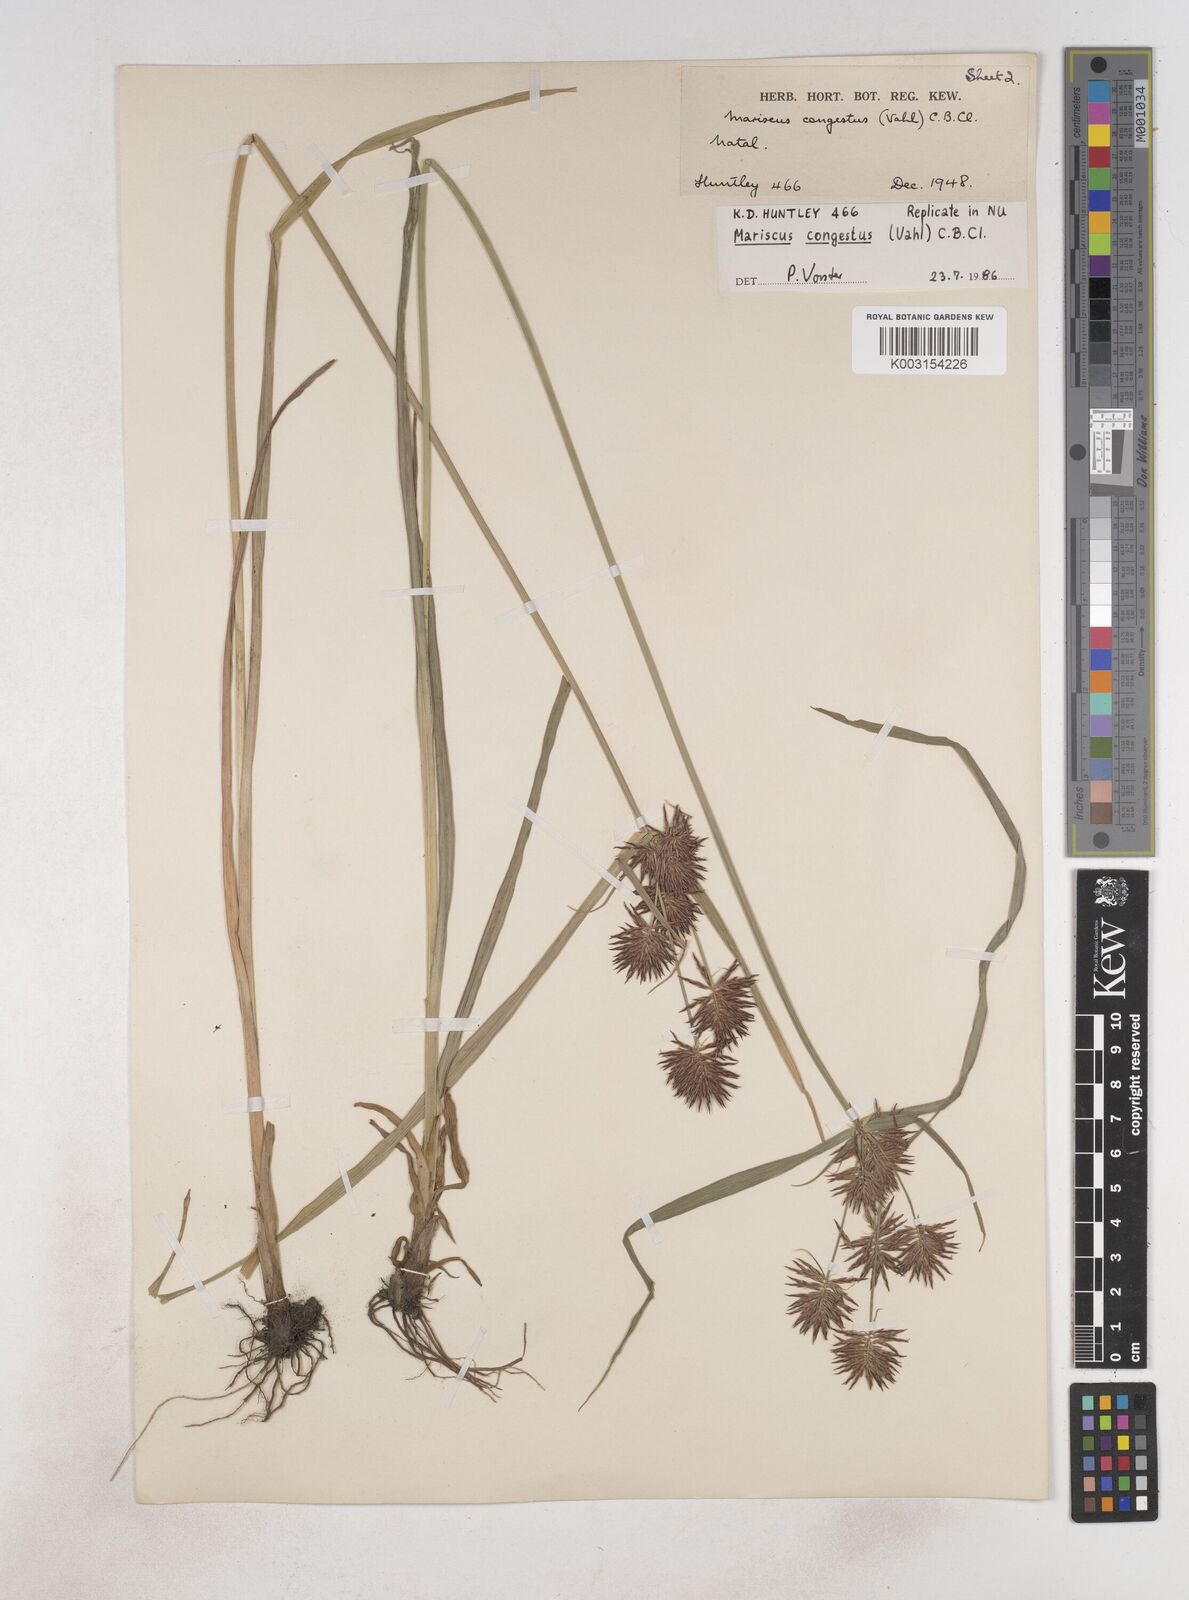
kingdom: Plantae
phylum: Tracheophyta
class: Liliopsida
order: Poales
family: Cyperaceae
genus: Cyperus
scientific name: Cyperus congestus
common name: Dense flat sedge
